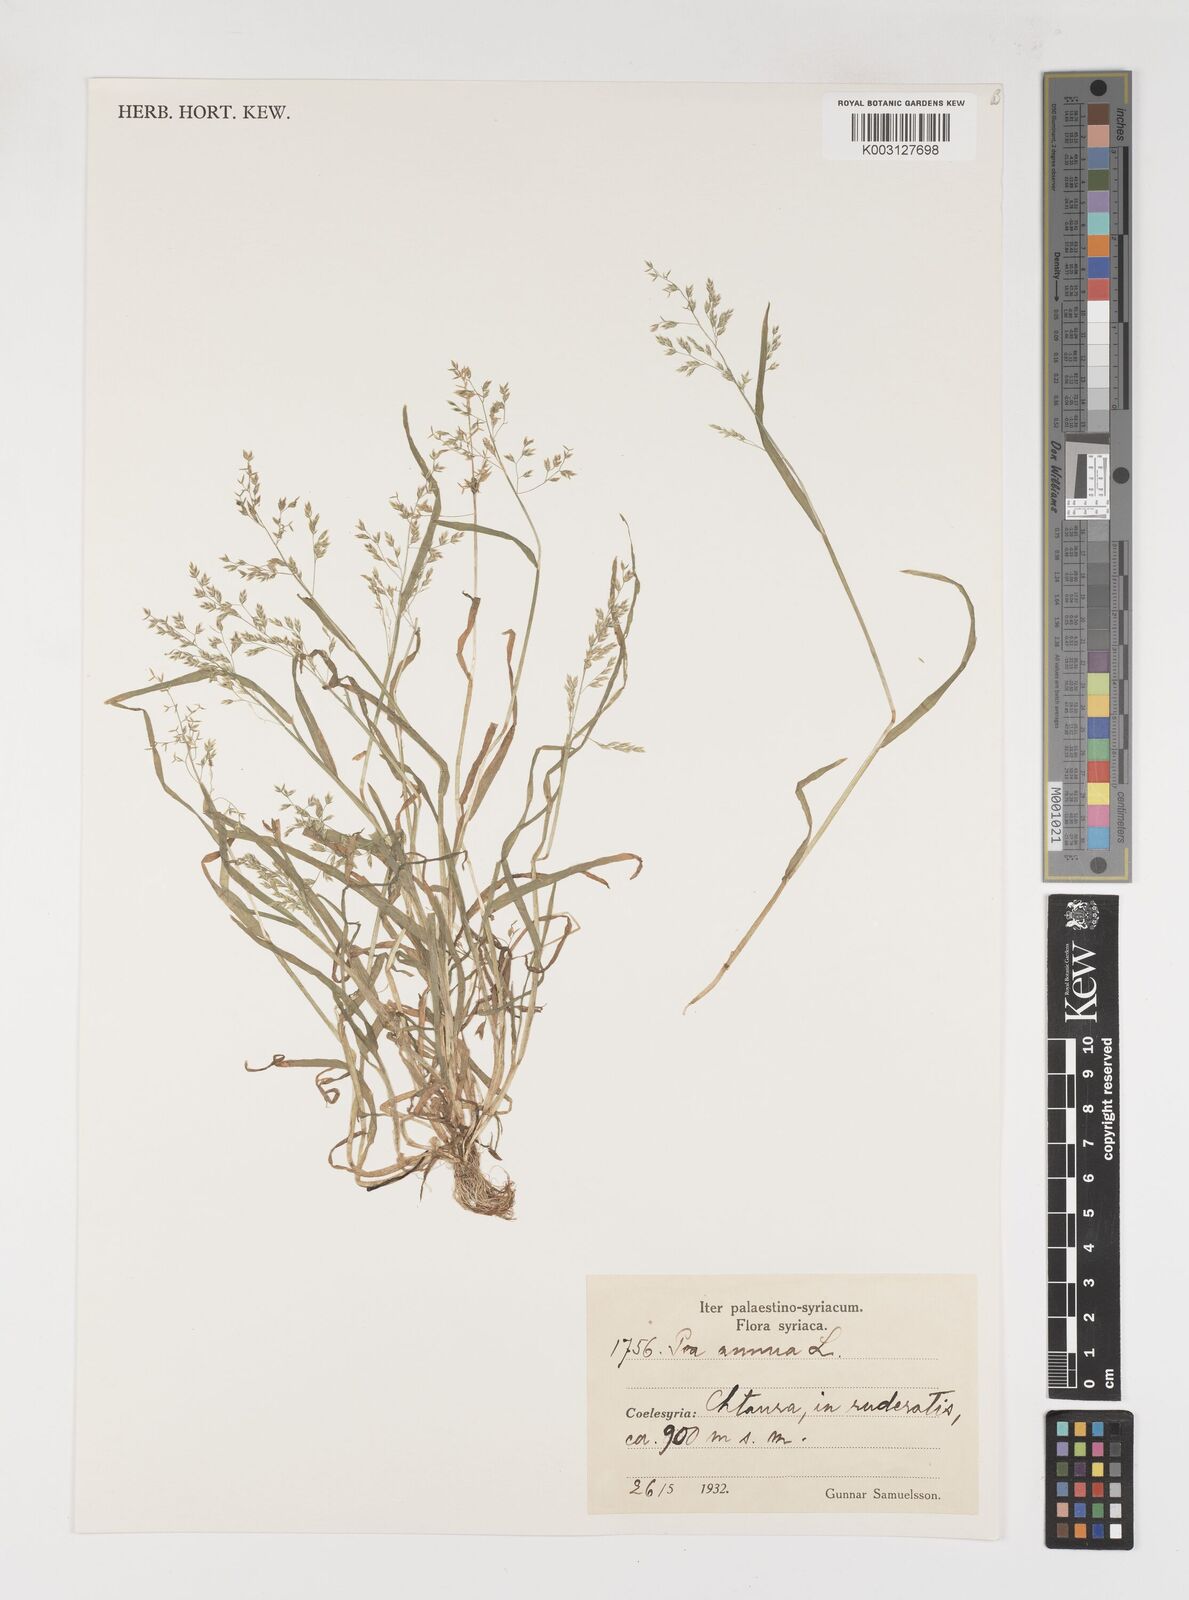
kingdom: Plantae
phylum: Tracheophyta
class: Liliopsida
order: Poales
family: Poaceae
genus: Poa
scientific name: Poa annua
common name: Annual bluegrass
